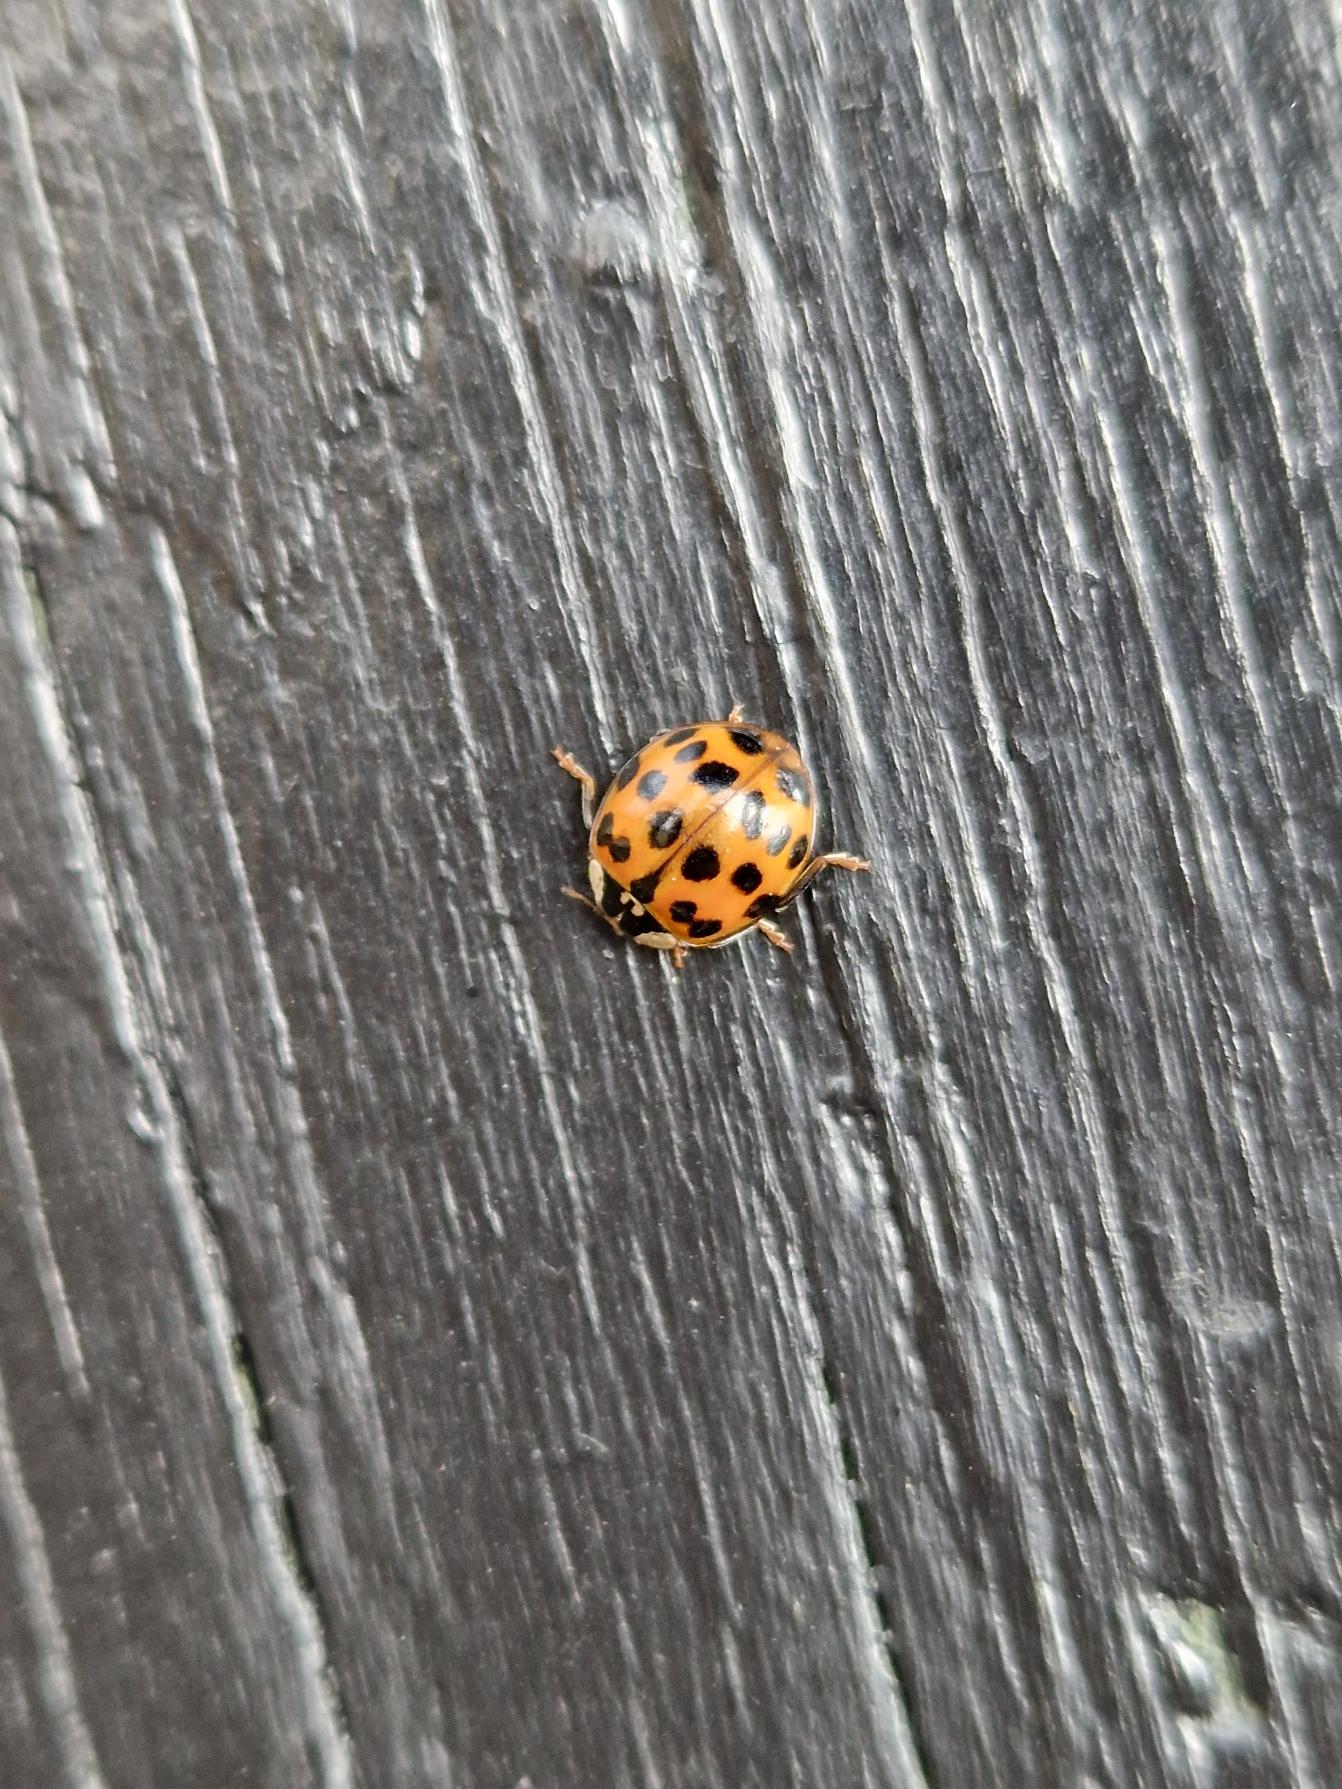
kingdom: Animalia
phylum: Arthropoda
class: Insecta
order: Coleoptera
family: Coccinellidae
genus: Harmonia
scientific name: Harmonia axyridis
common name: Harlekinmariehøne
